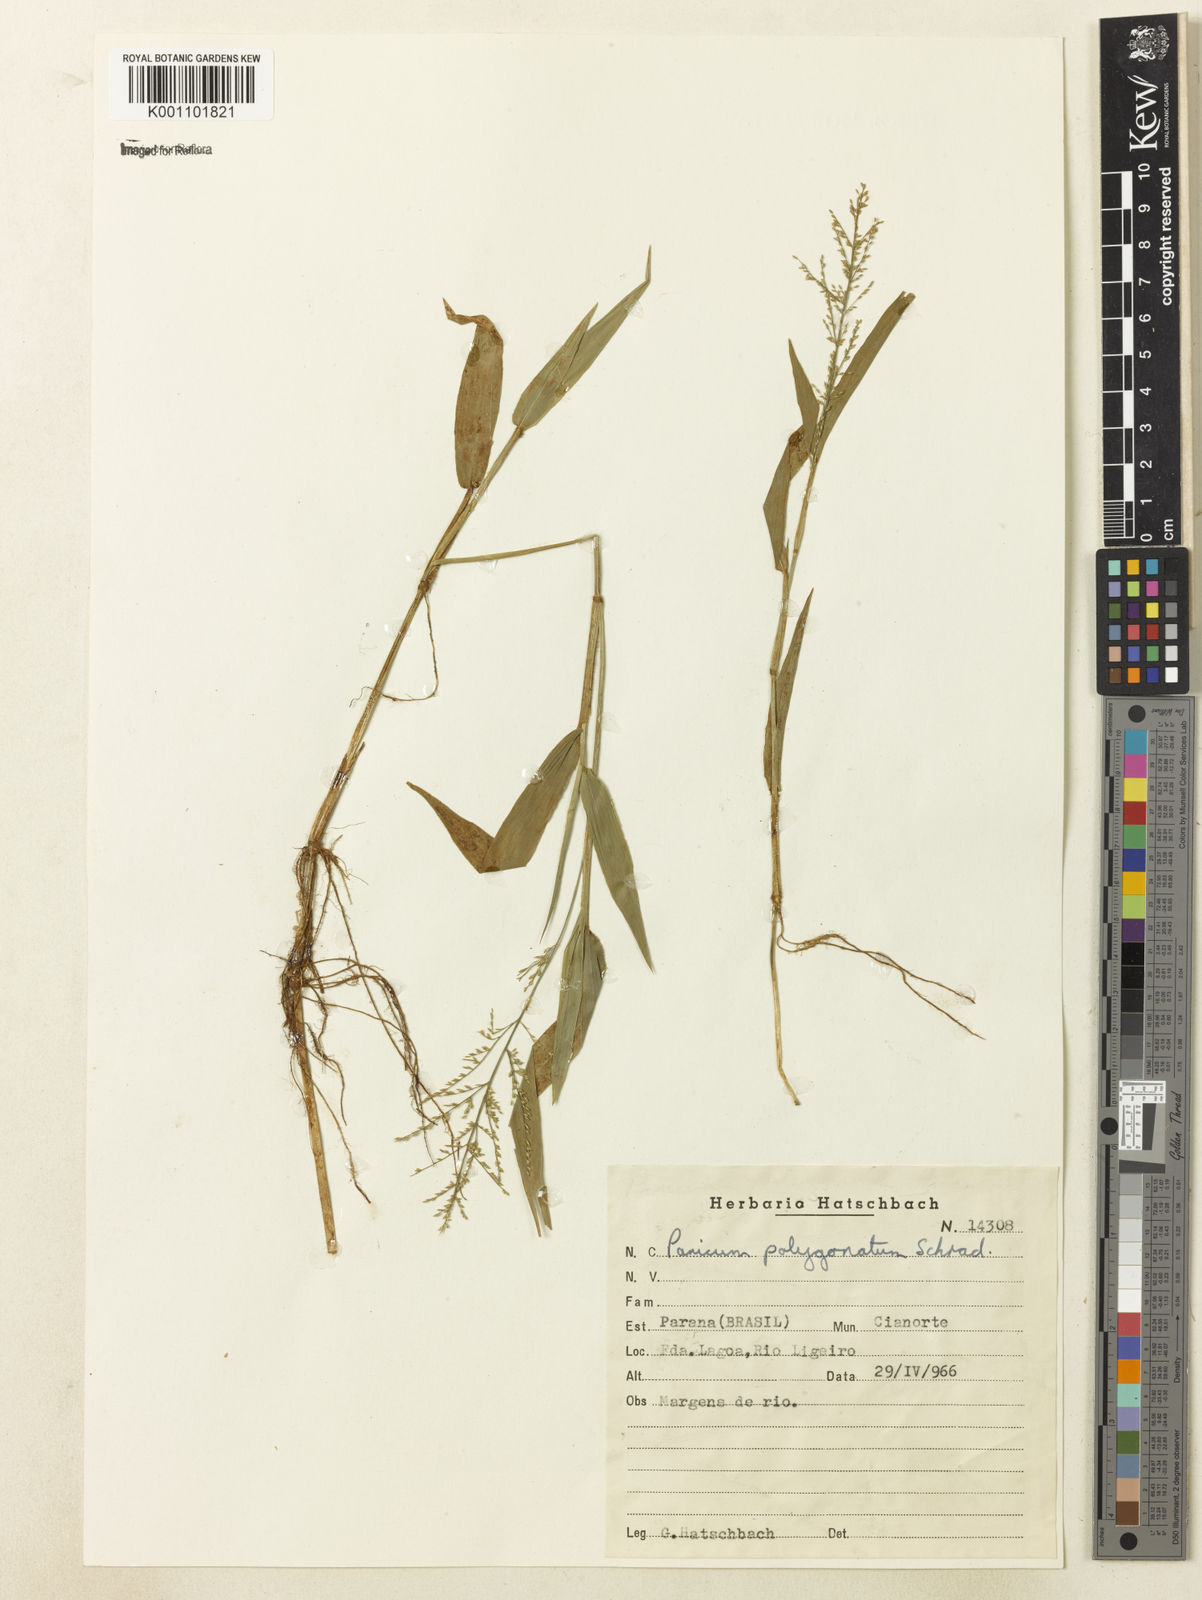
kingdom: Plantae
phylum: Tracheophyta
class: Liliopsida
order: Poales
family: Poaceae
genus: Rugoloa
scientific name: Rugoloa polygonata
